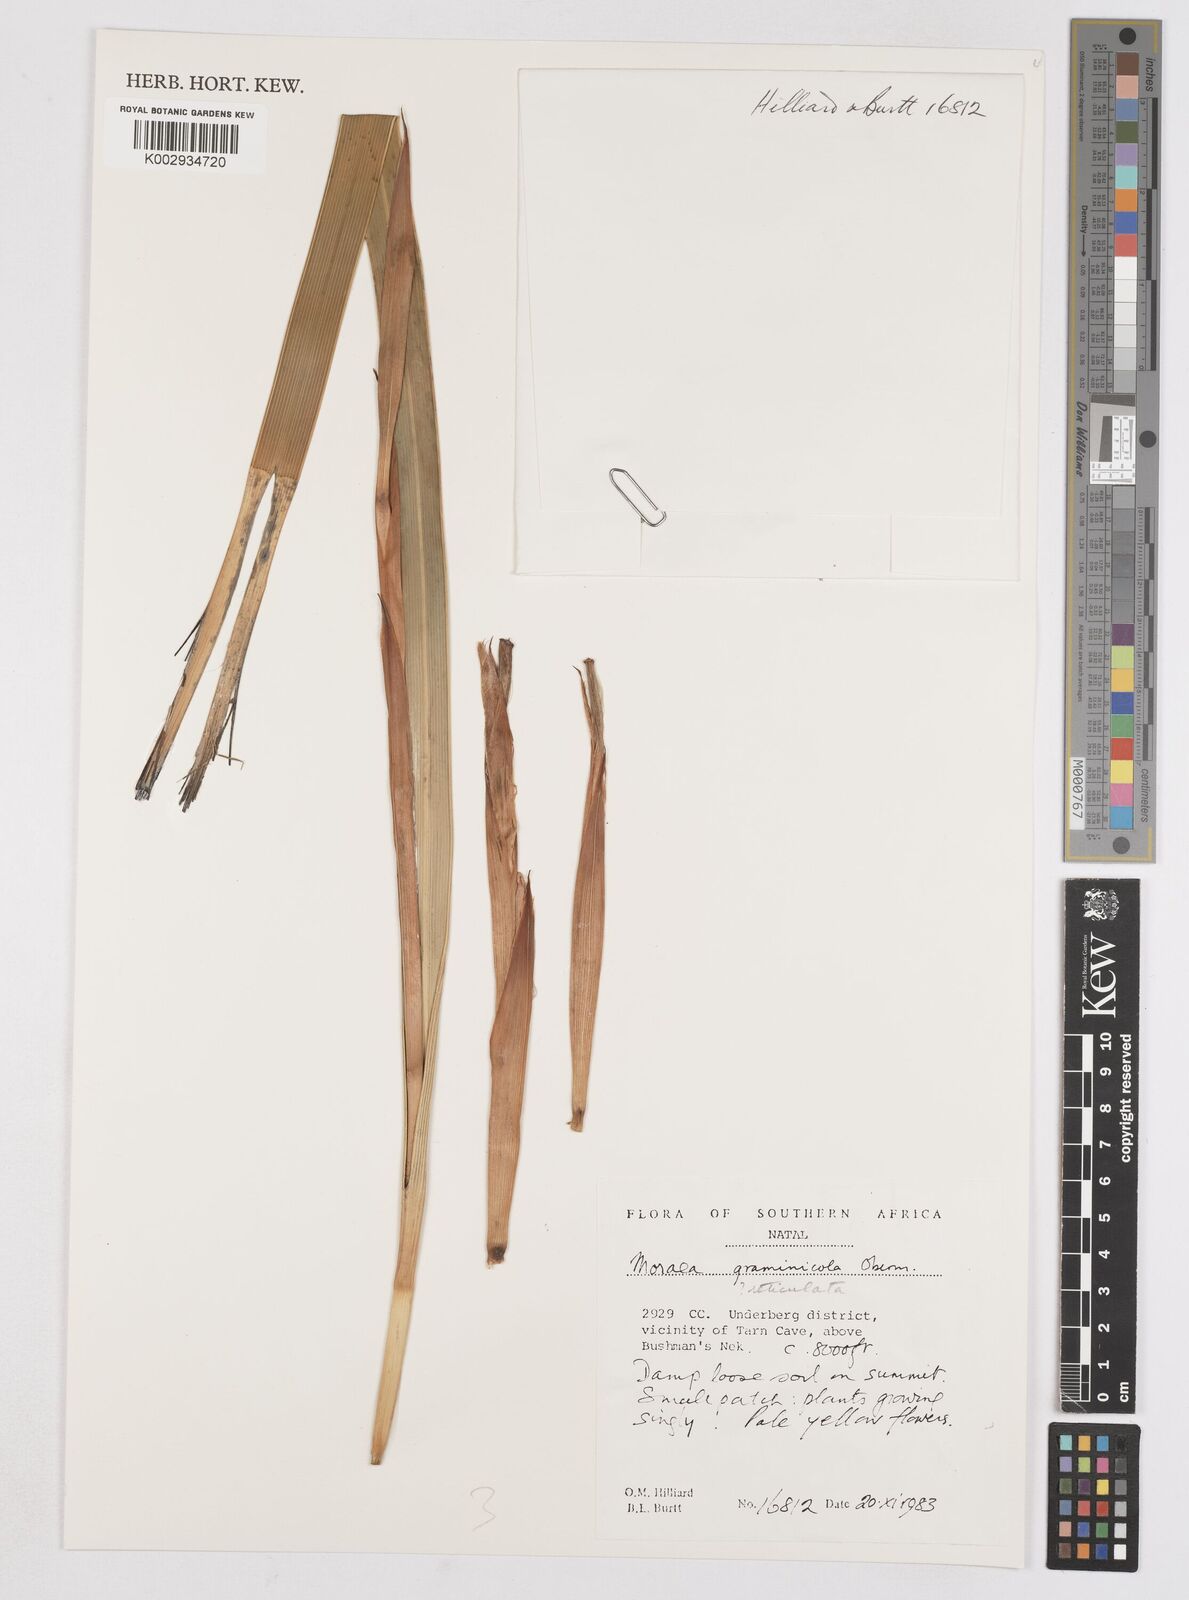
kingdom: Plantae
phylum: Tracheophyta
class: Liliopsida
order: Asparagales
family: Iridaceae
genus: Moraea
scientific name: Moraea graminicola
